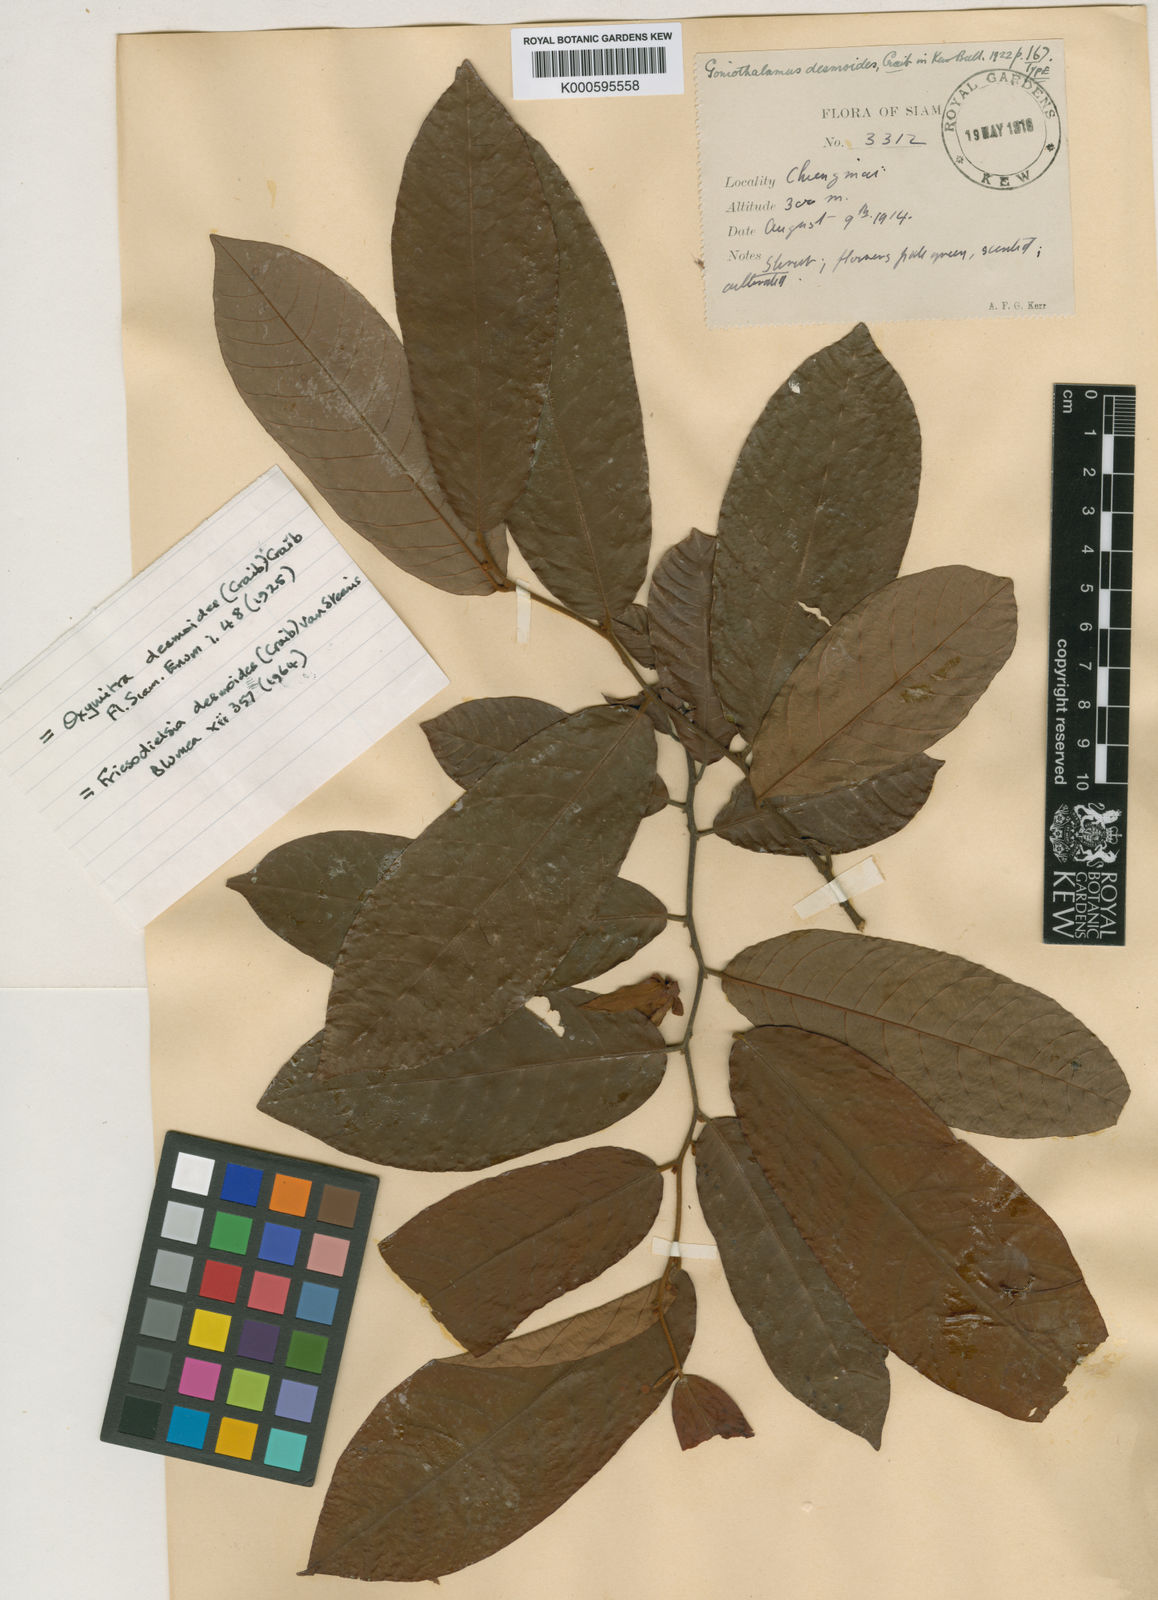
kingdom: Plantae
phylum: Tracheophyta
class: Magnoliopsida
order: Magnoliales
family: Annonaceae
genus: Friesodielsia
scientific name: Friesodielsia desmoides
